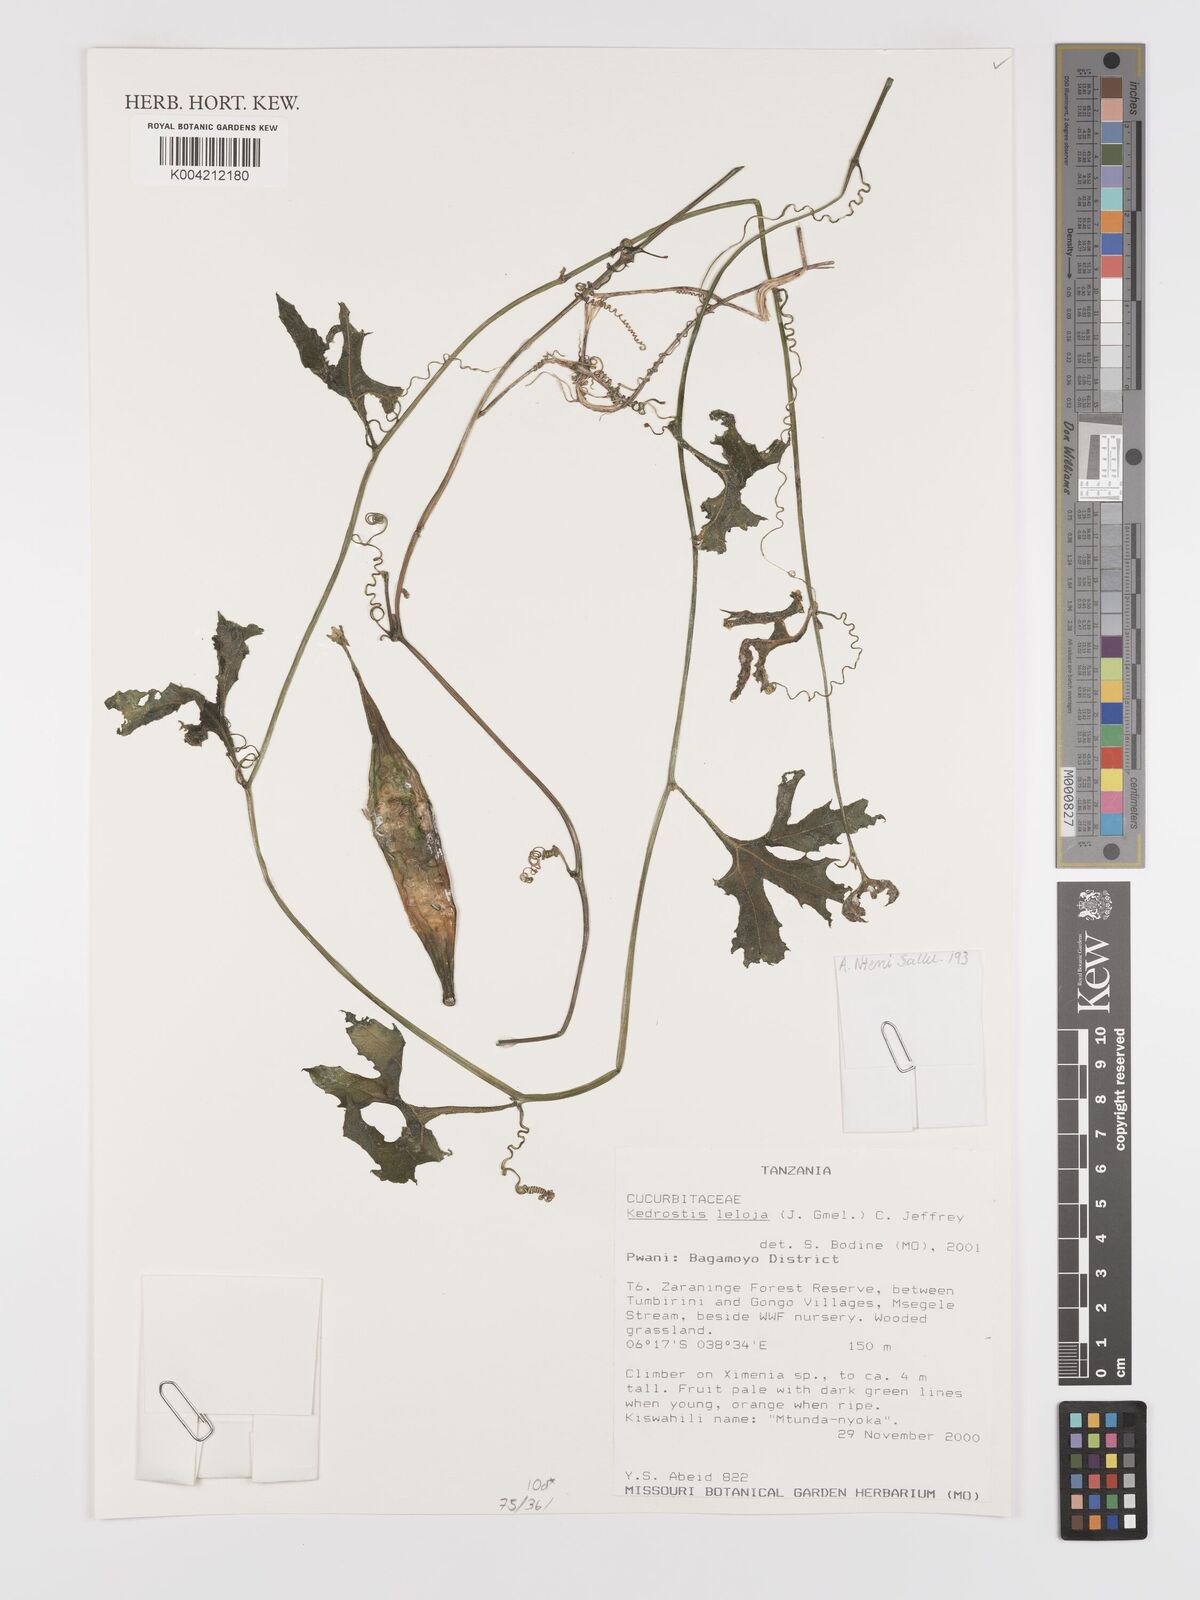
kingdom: Plantae
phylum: Tracheophyta
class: Magnoliopsida
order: Cucurbitales
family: Cucurbitaceae
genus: Kedrostis
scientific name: Kedrostis leloja
